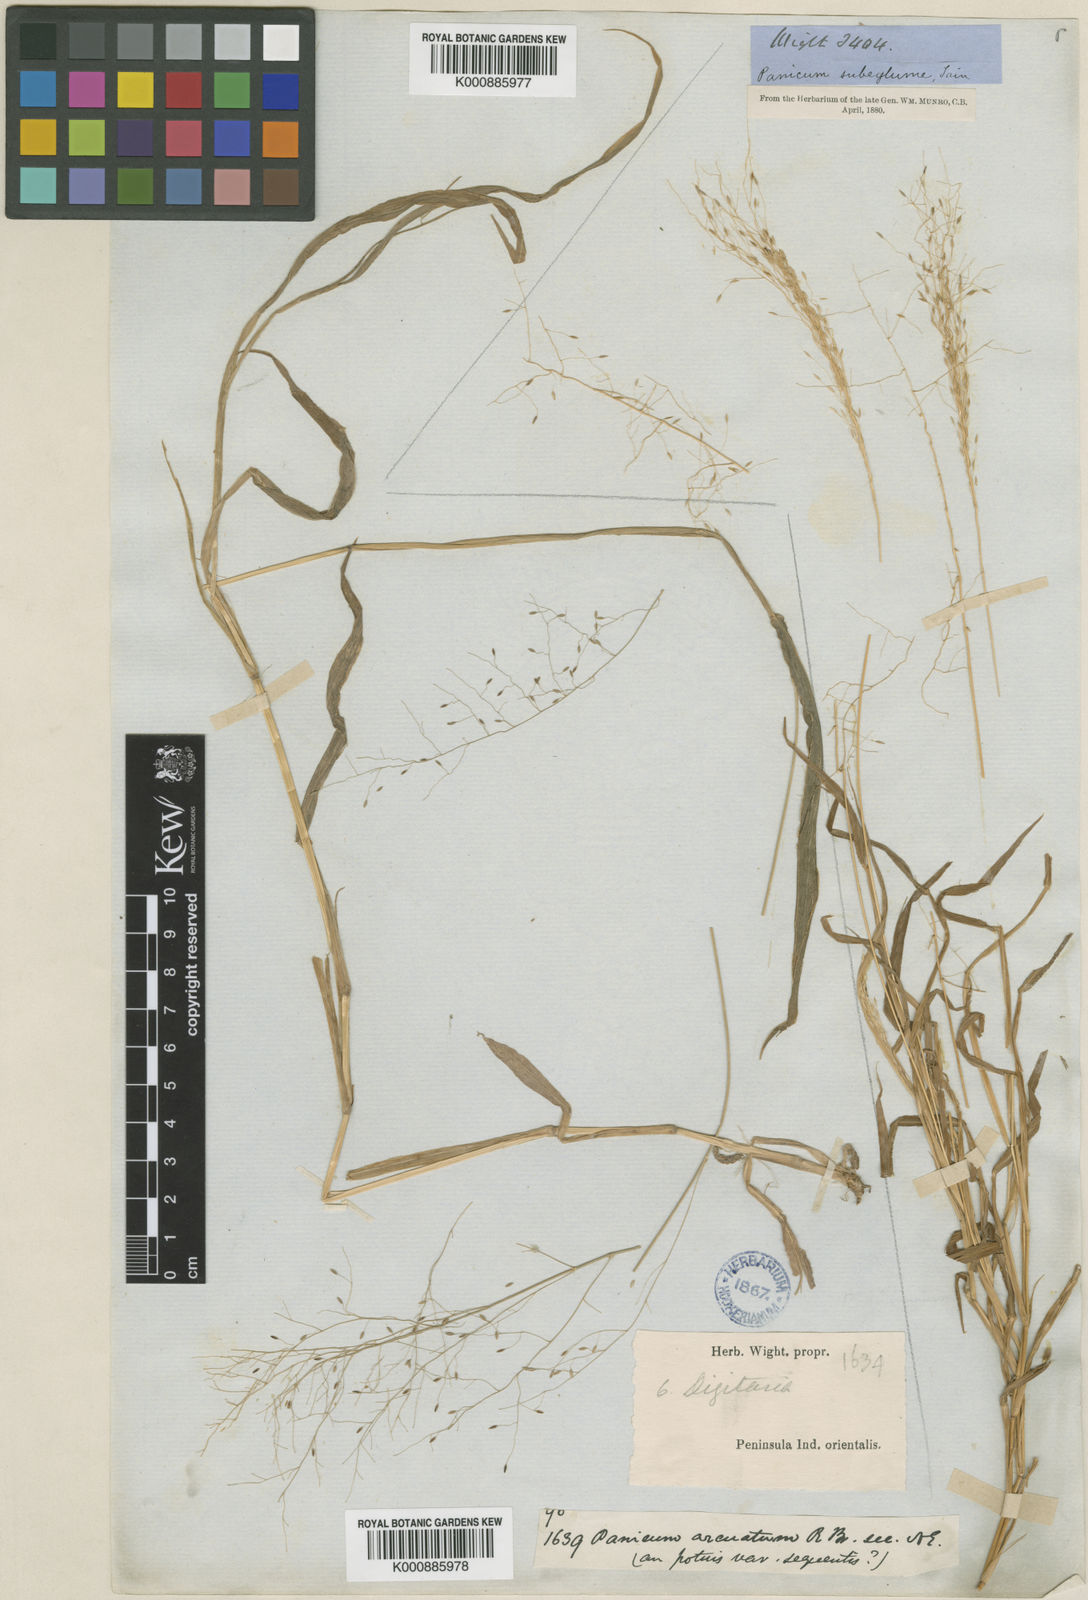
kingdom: Plantae
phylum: Tracheophyta
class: Liliopsida
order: Poales
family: Poaceae
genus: Digitaria
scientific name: Digitaria tomentosa
